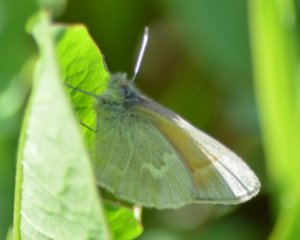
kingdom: Animalia
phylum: Arthropoda
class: Insecta
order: Lepidoptera
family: Nymphalidae
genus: Coenonympha
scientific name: Coenonympha tullia
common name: Large Heath
